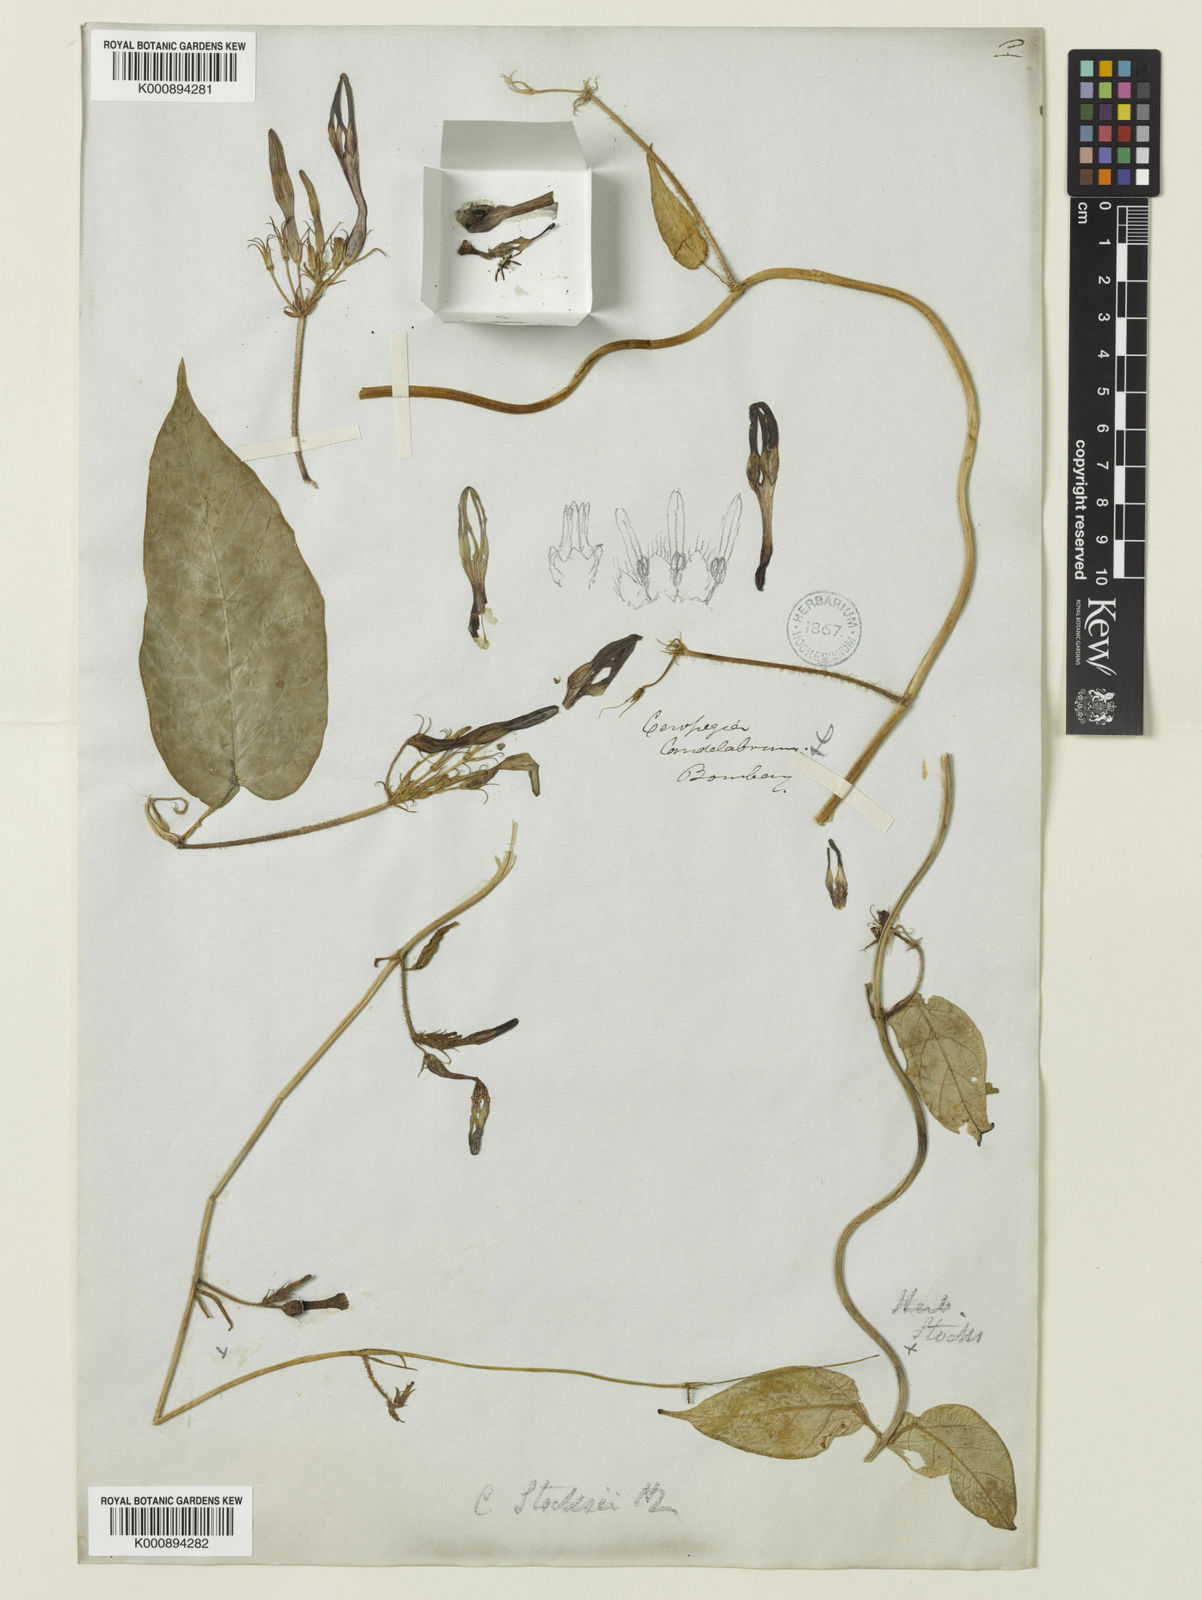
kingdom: Plantae
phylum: Tracheophyta
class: Magnoliopsida
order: Gentianales
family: Apocynaceae
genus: Ceropegia
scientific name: Ceropegia vincifolia
